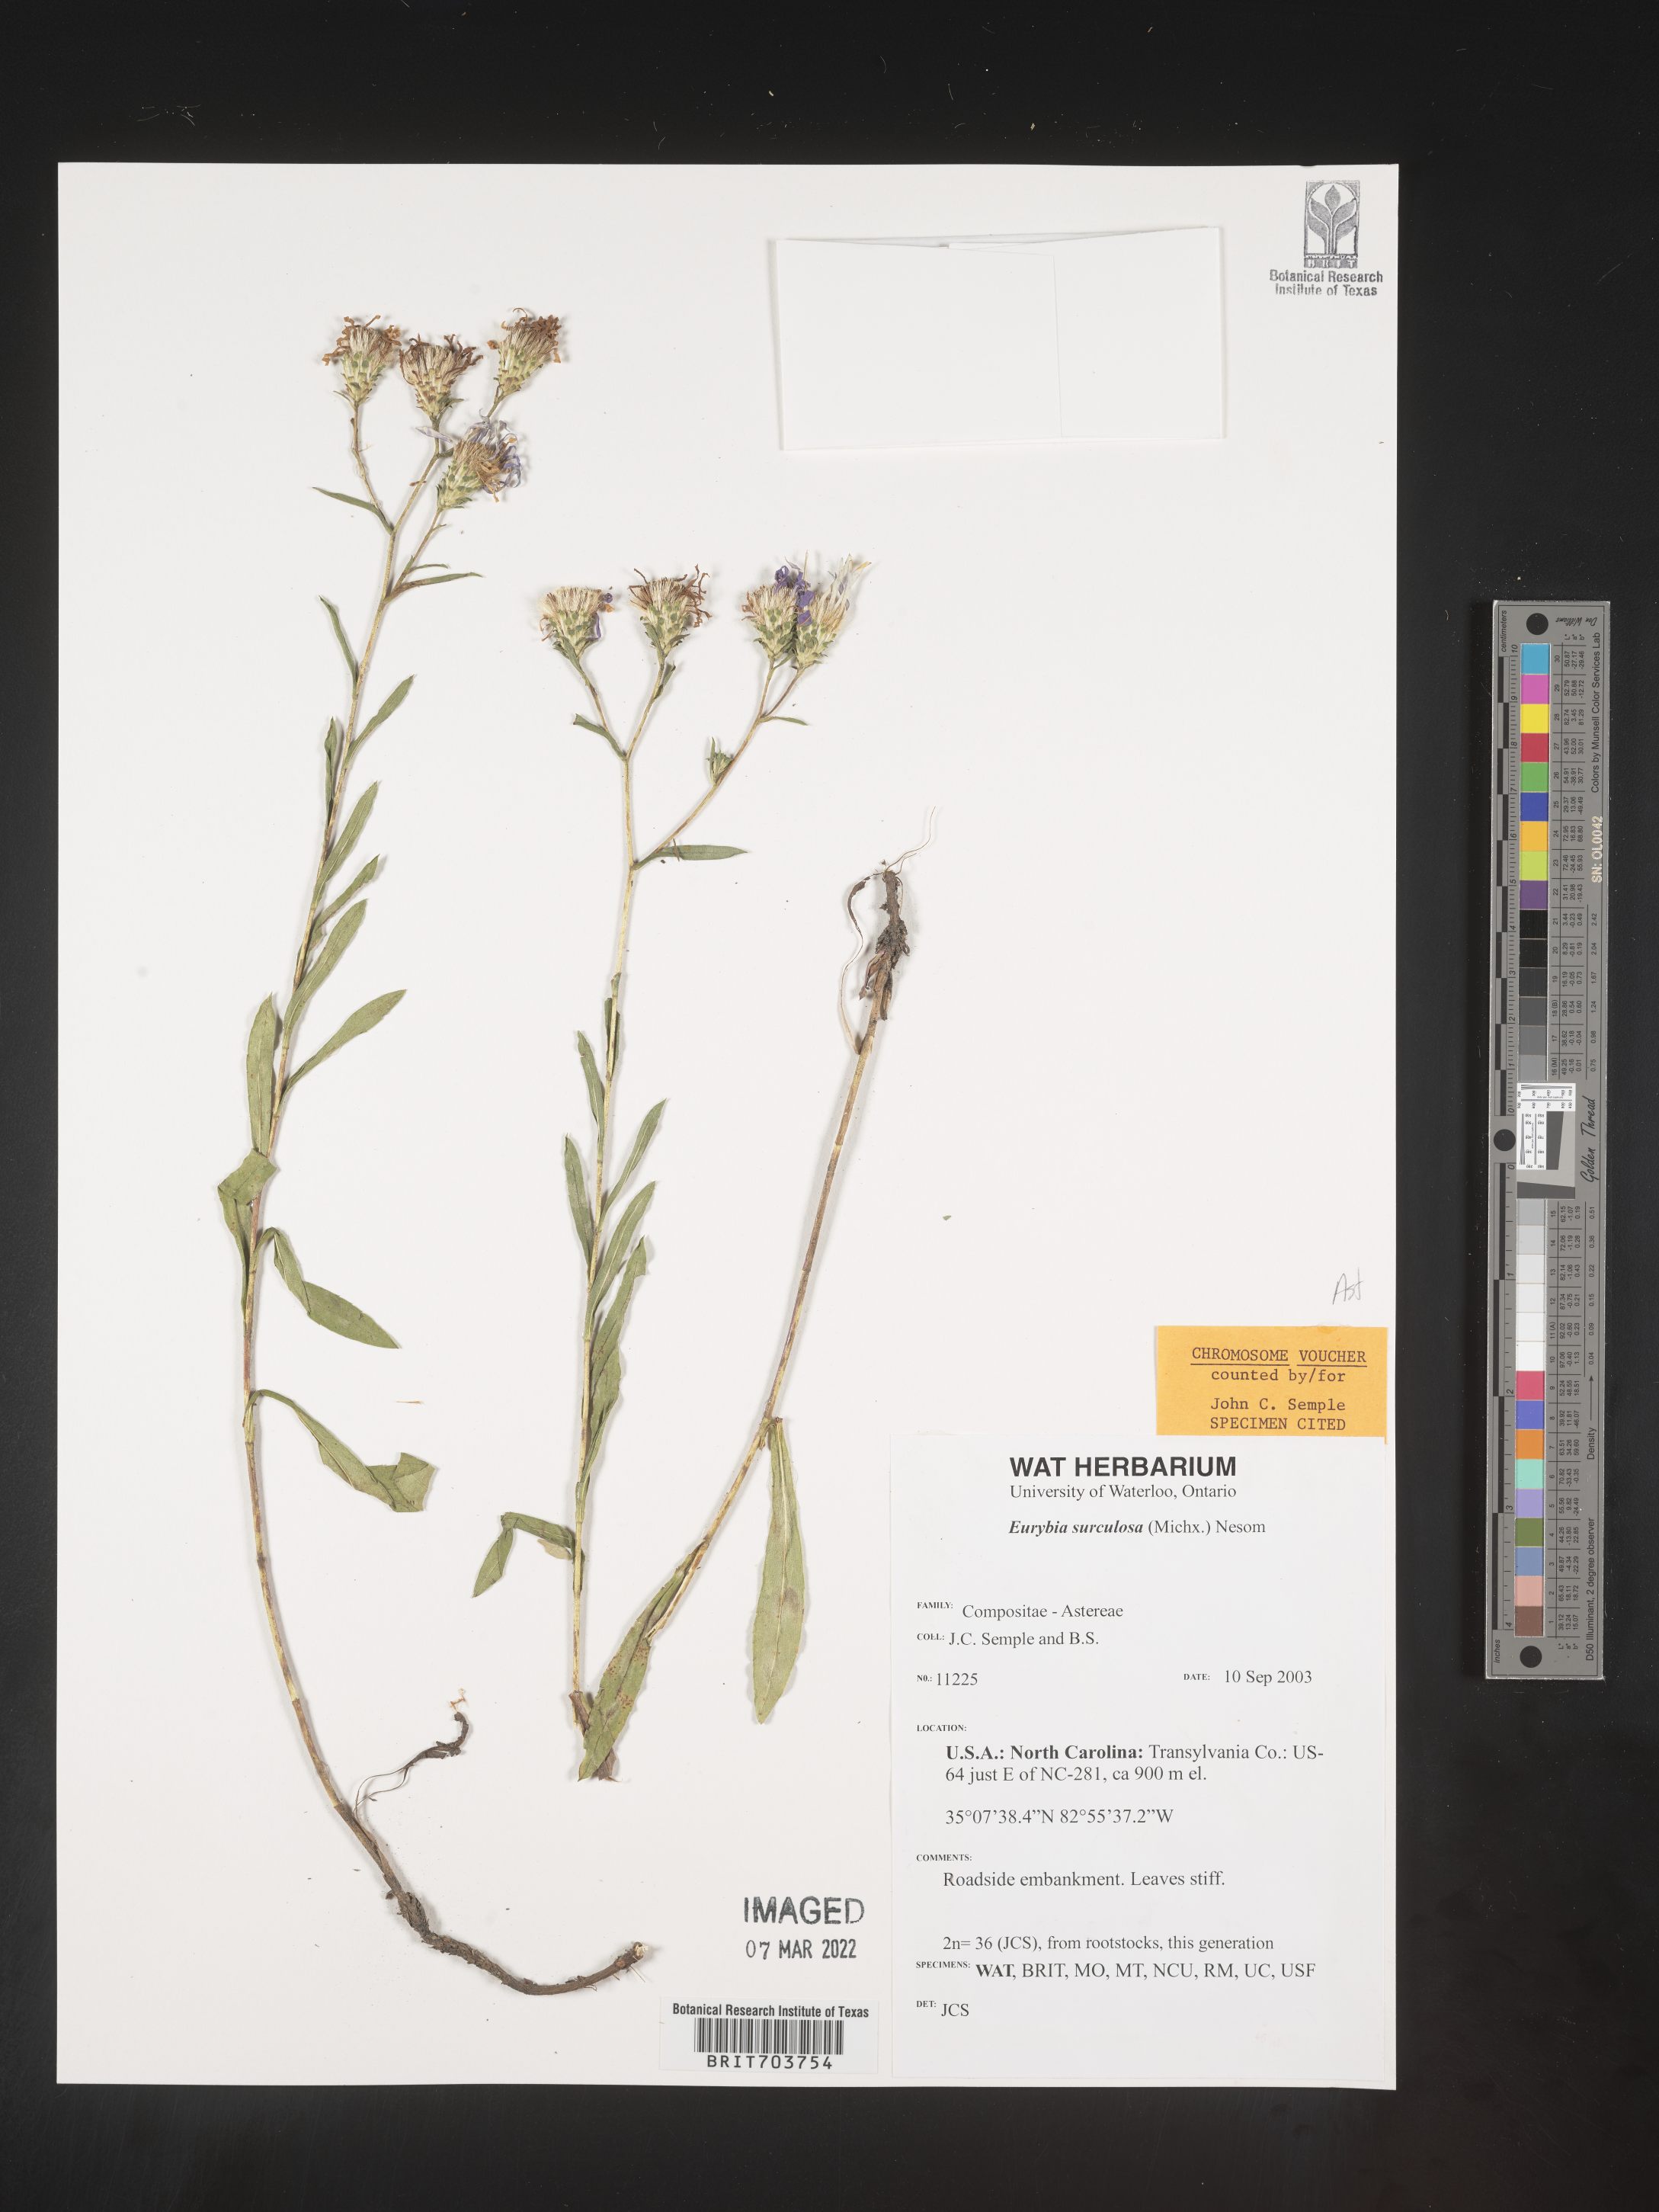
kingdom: Plantae
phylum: Tracheophyta
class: Magnoliopsida
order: Asterales
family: Asteraceae
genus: Eurybia
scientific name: Eurybia surculosa
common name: Creeping aster
